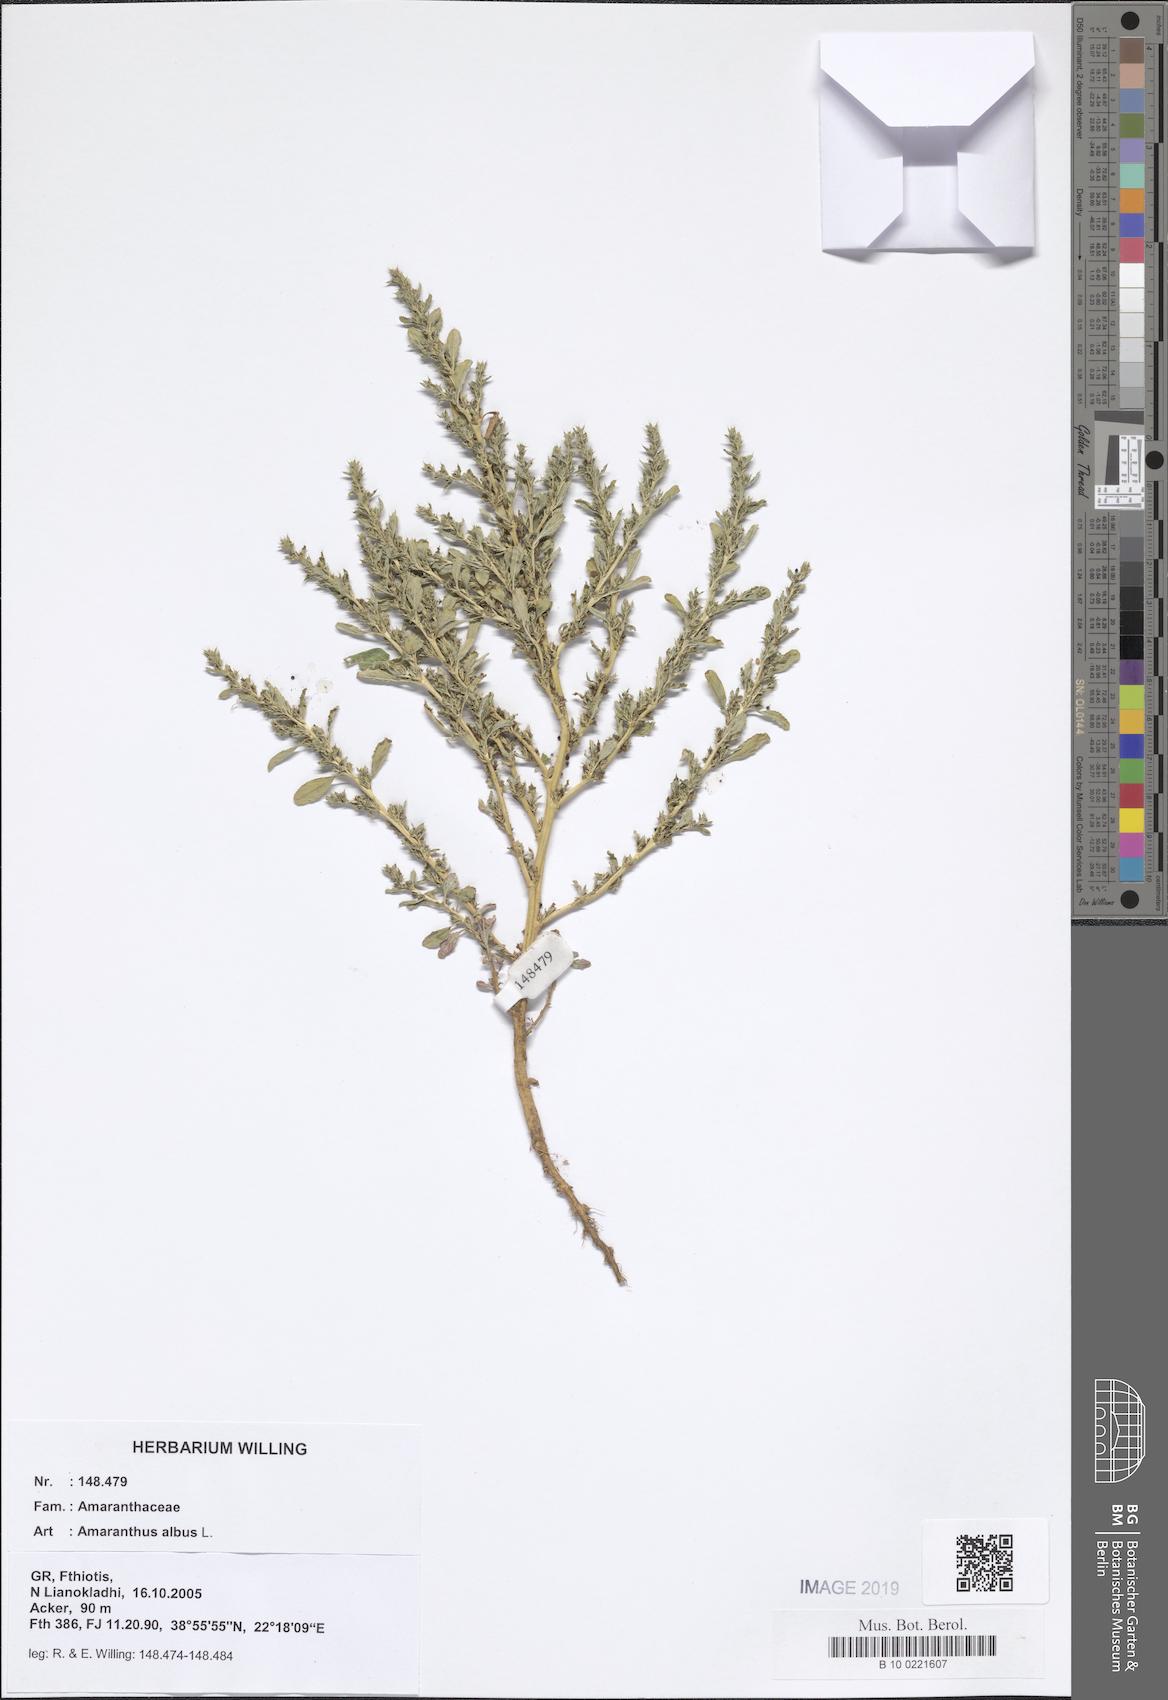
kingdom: Plantae
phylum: Tracheophyta
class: Magnoliopsida
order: Caryophyllales
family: Amaranthaceae
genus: Amaranthus
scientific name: Amaranthus albus
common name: White pigweed
